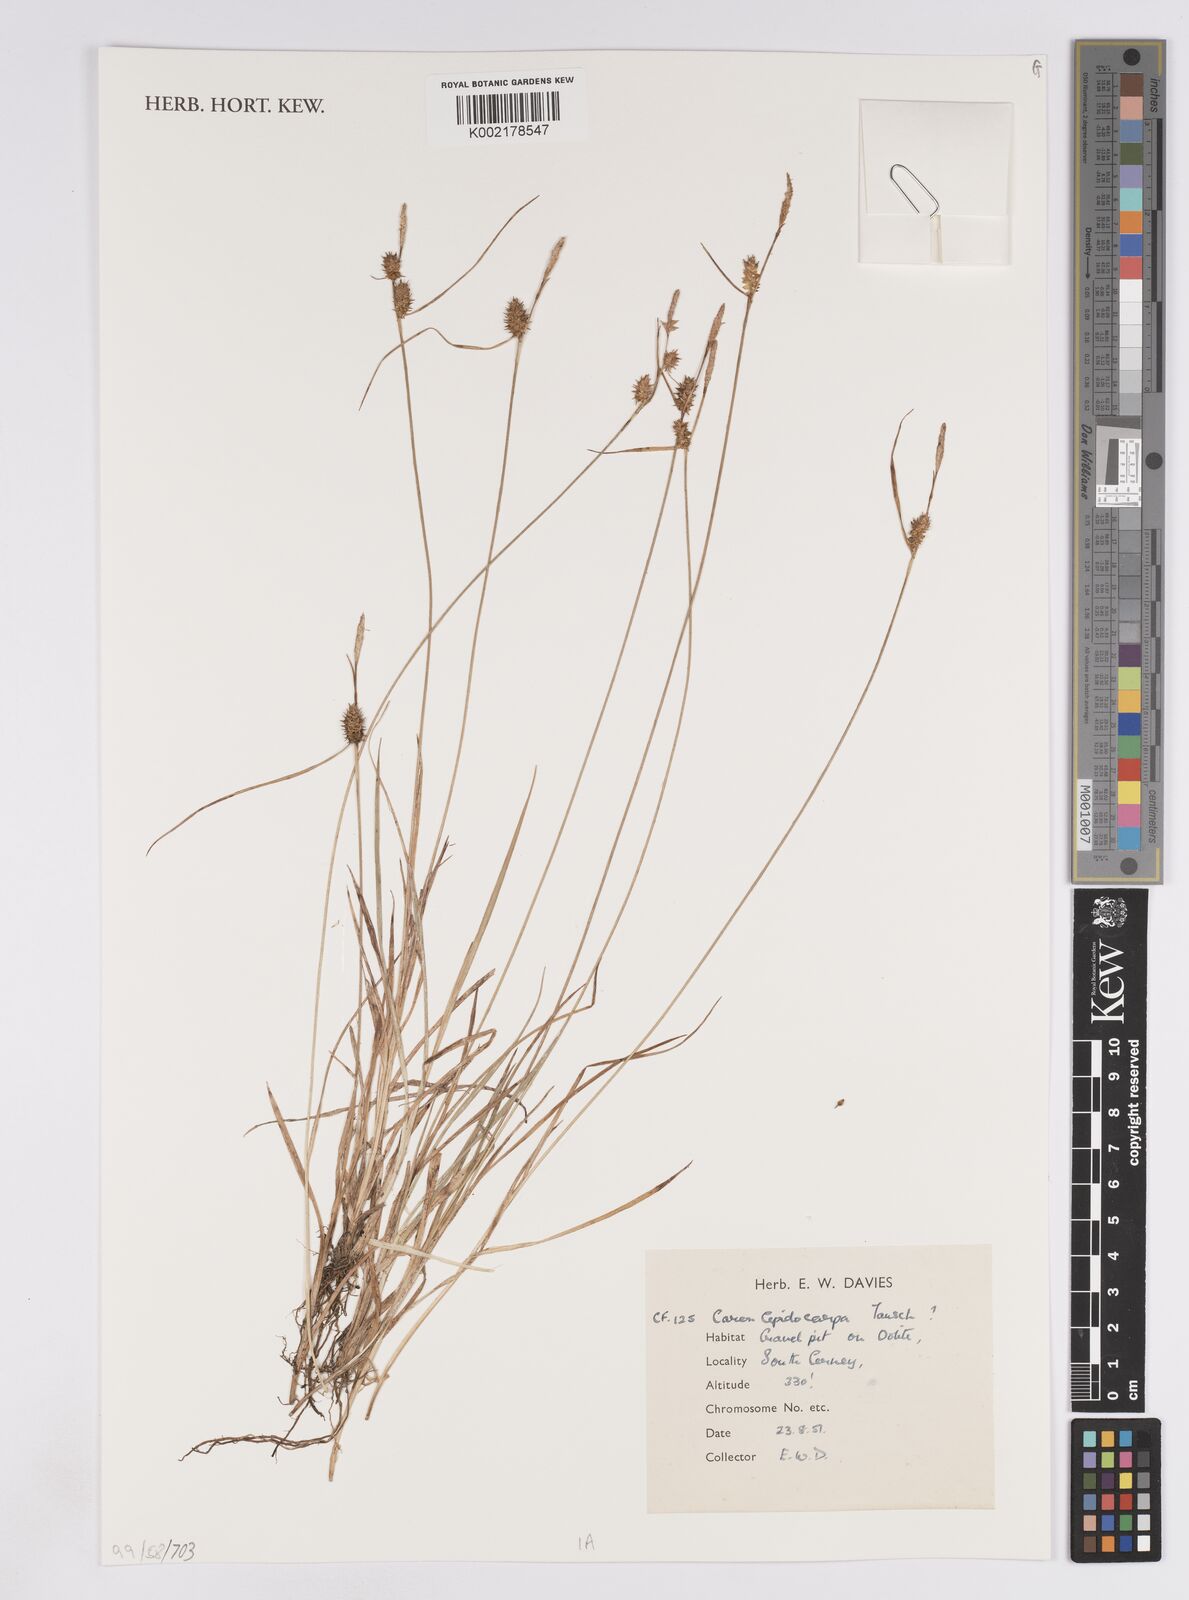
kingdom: Plantae
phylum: Tracheophyta
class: Liliopsida
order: Poales
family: Cyperaceae
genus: Carex
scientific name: Carex lepidocarpa
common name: Long-stalked yellow-sedge
